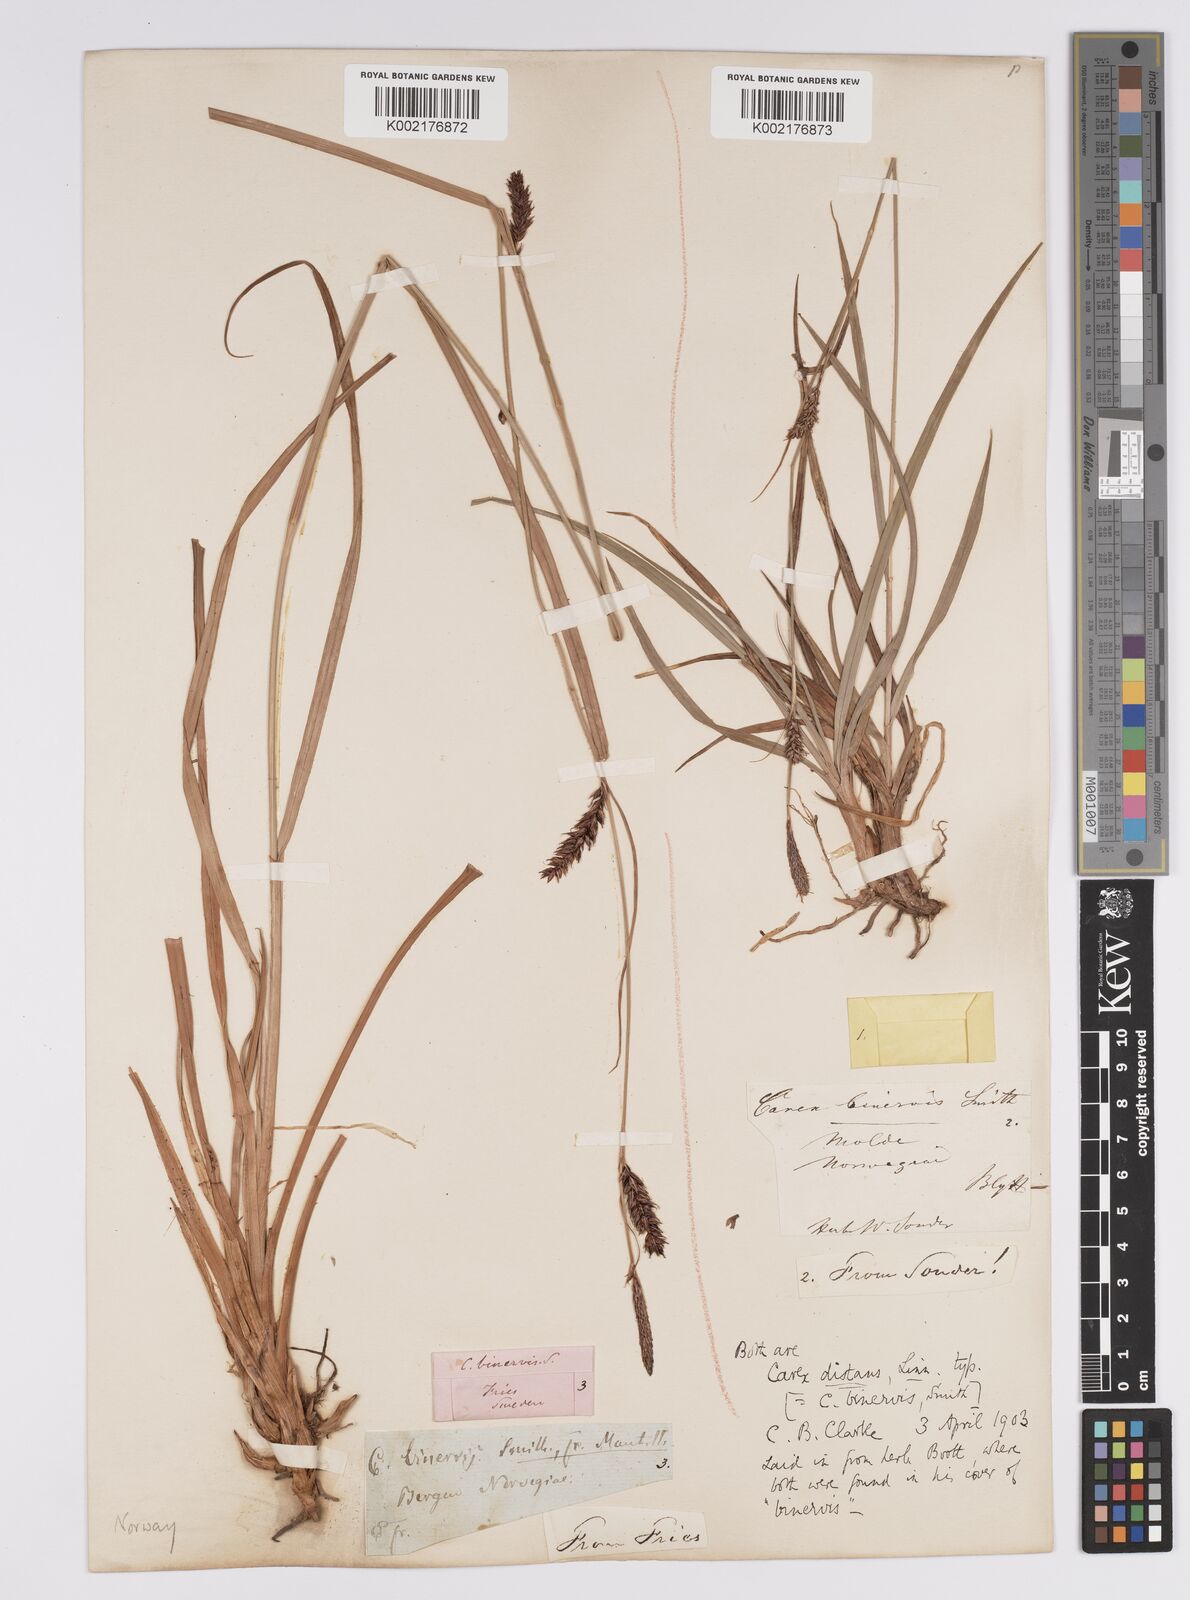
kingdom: Plantae
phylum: Tracheophyta
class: Liliopsida
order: Poales
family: Cyperaceae
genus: Carex
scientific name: Carex binervis
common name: Green-ribbed sedge
